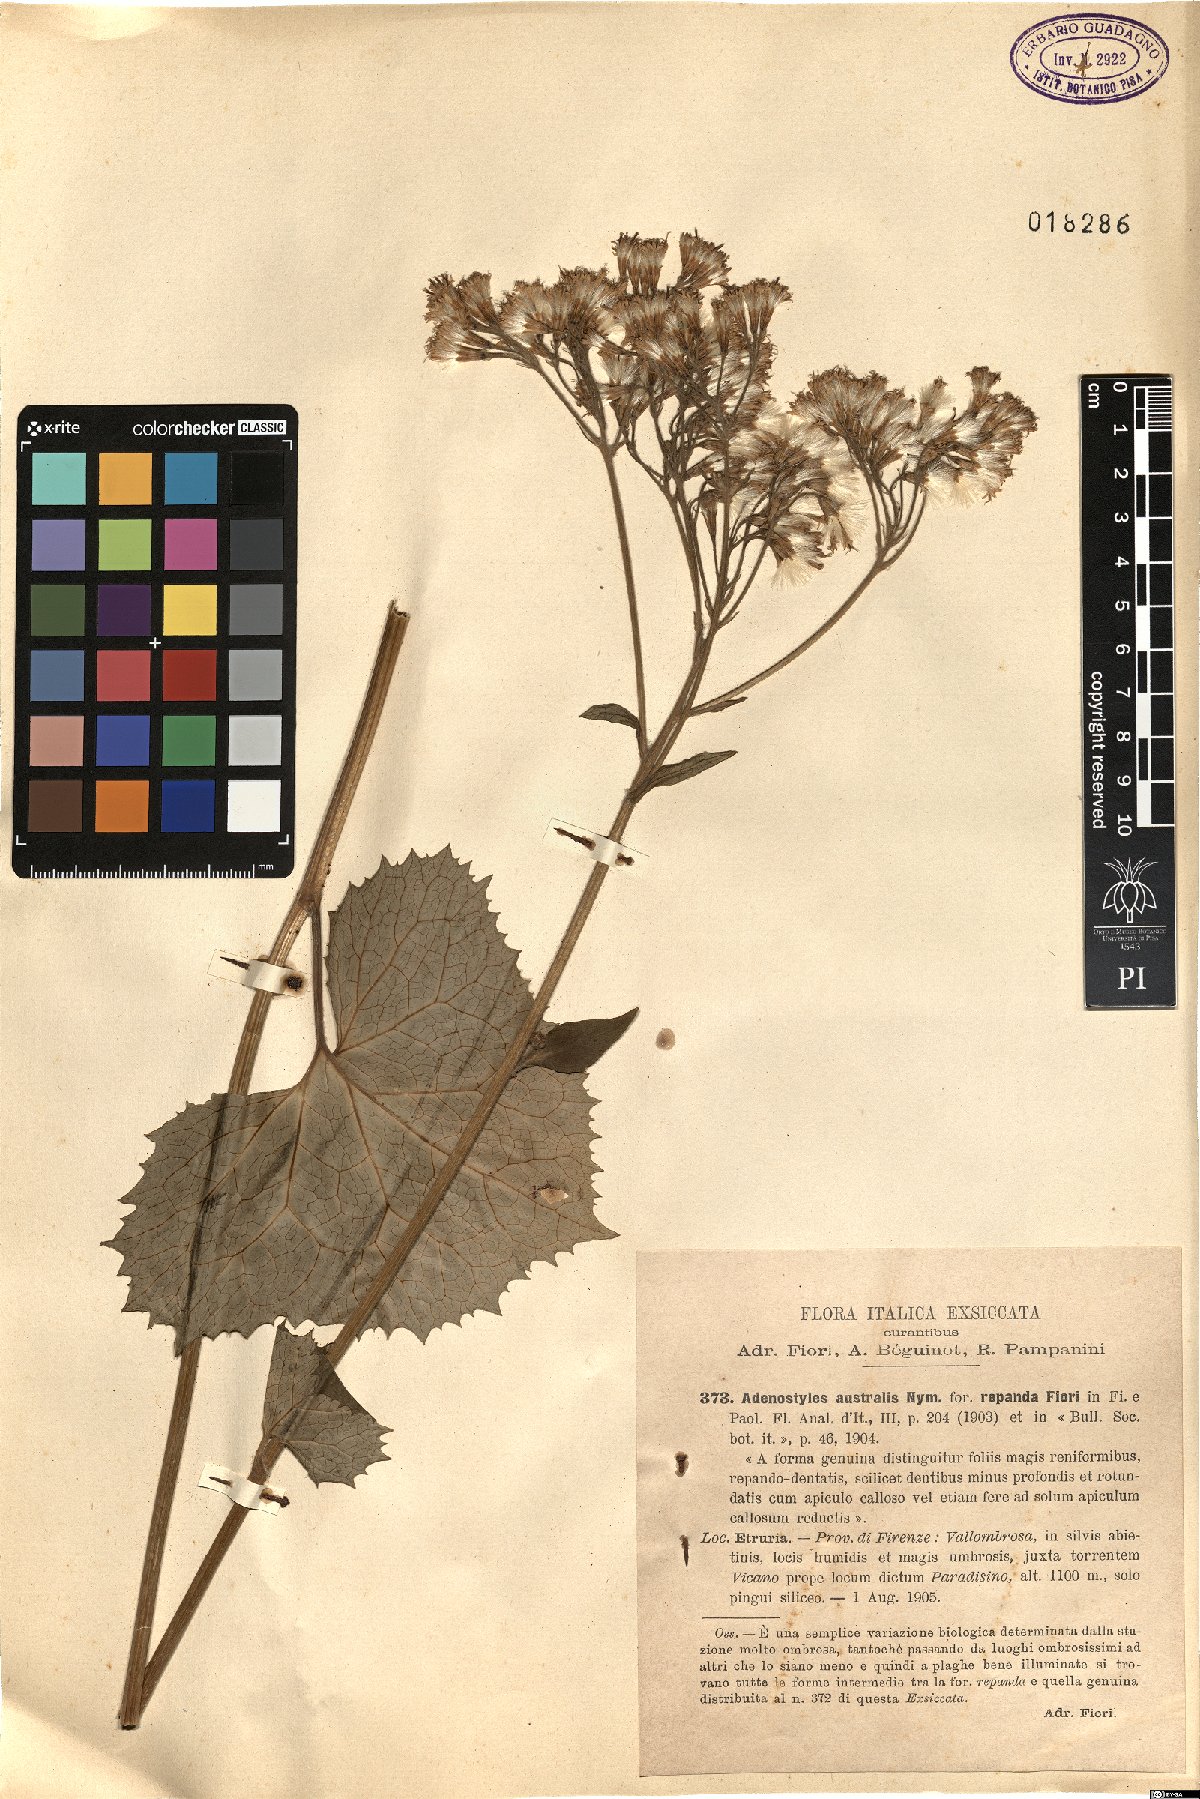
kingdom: Plantae
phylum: Tracheophyta
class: Magnoliopsida
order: Asterales
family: Asteraceae
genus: Adenostyles
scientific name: Adenostyles australis
